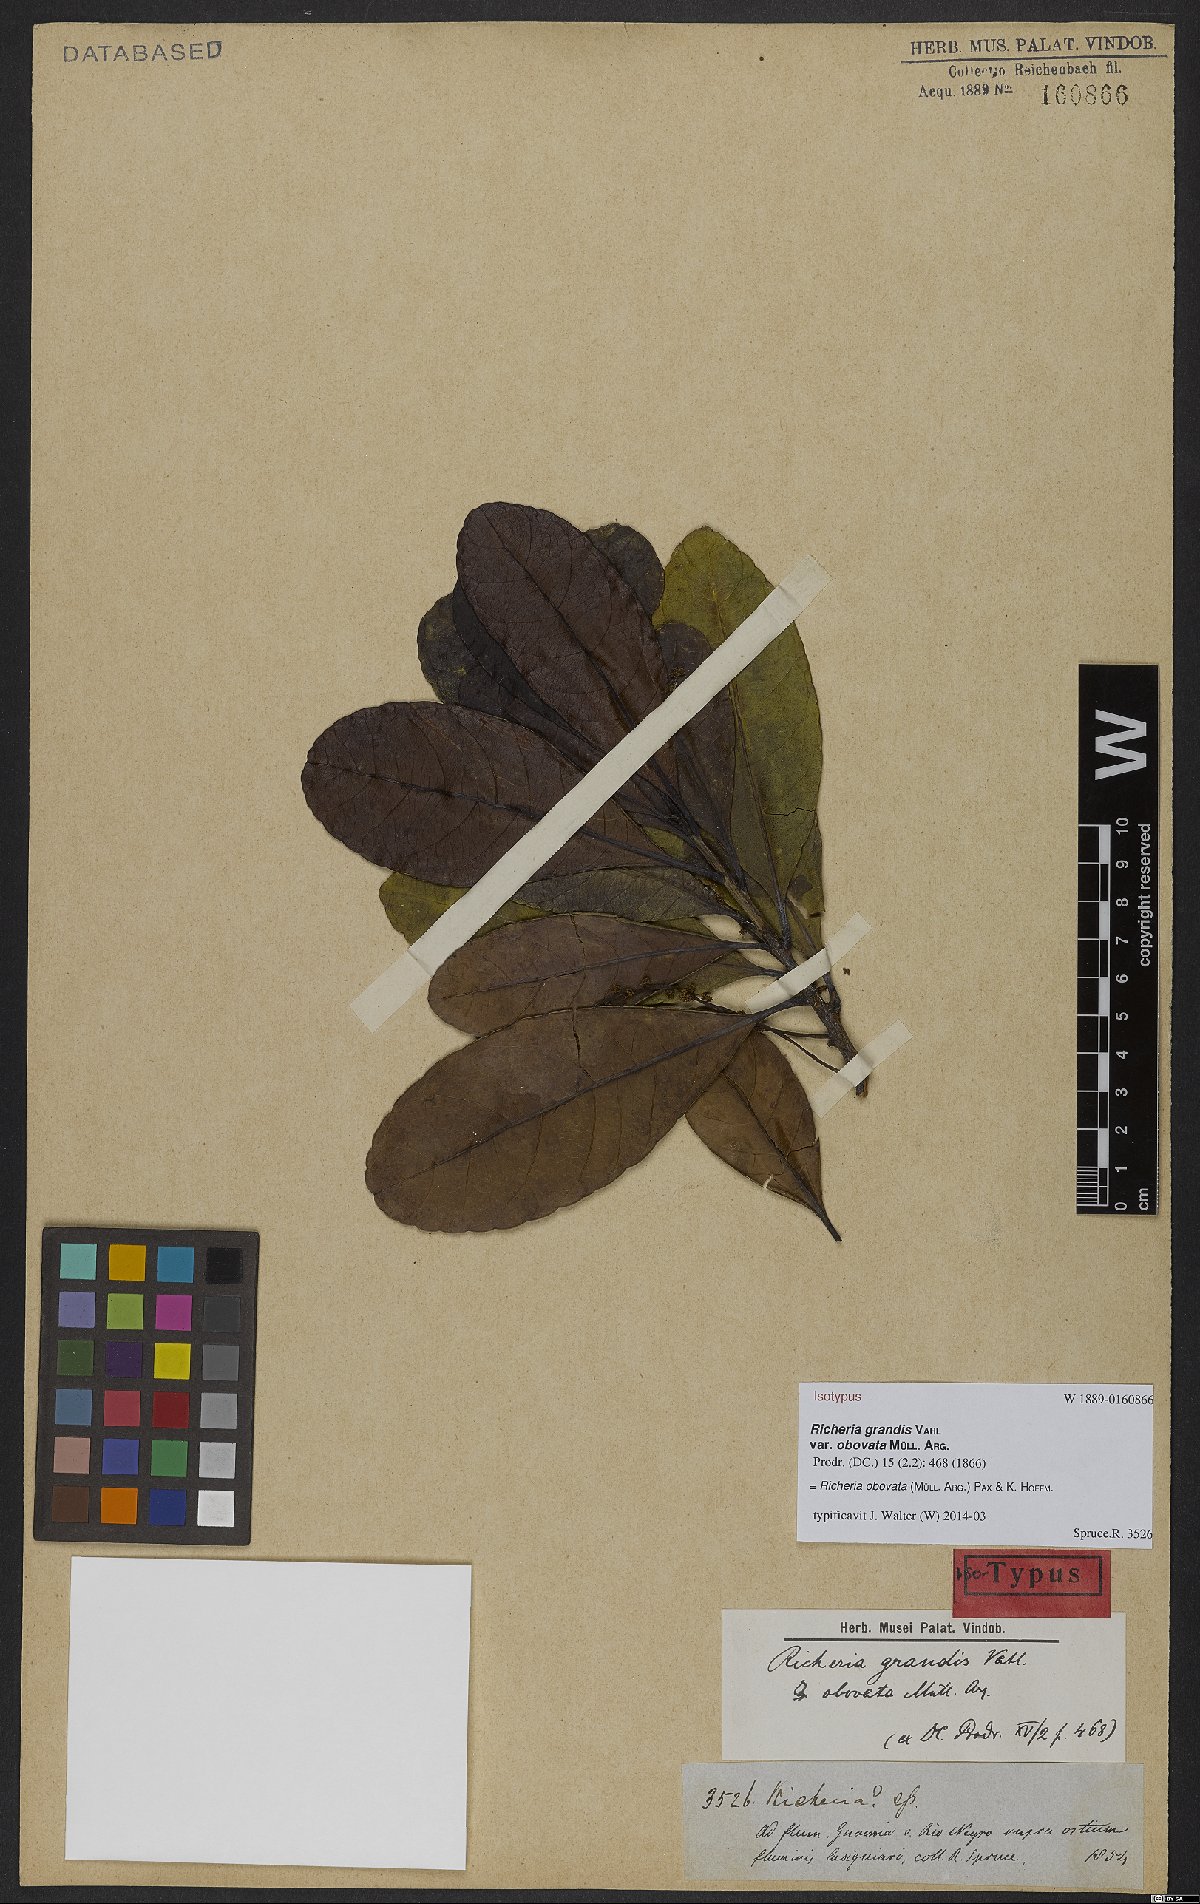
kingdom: Plantae
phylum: Tracheophyta
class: Magnoliopsida
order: Malpighiales
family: Phyllanthaceae
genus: Richeria
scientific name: Richeria grandis
